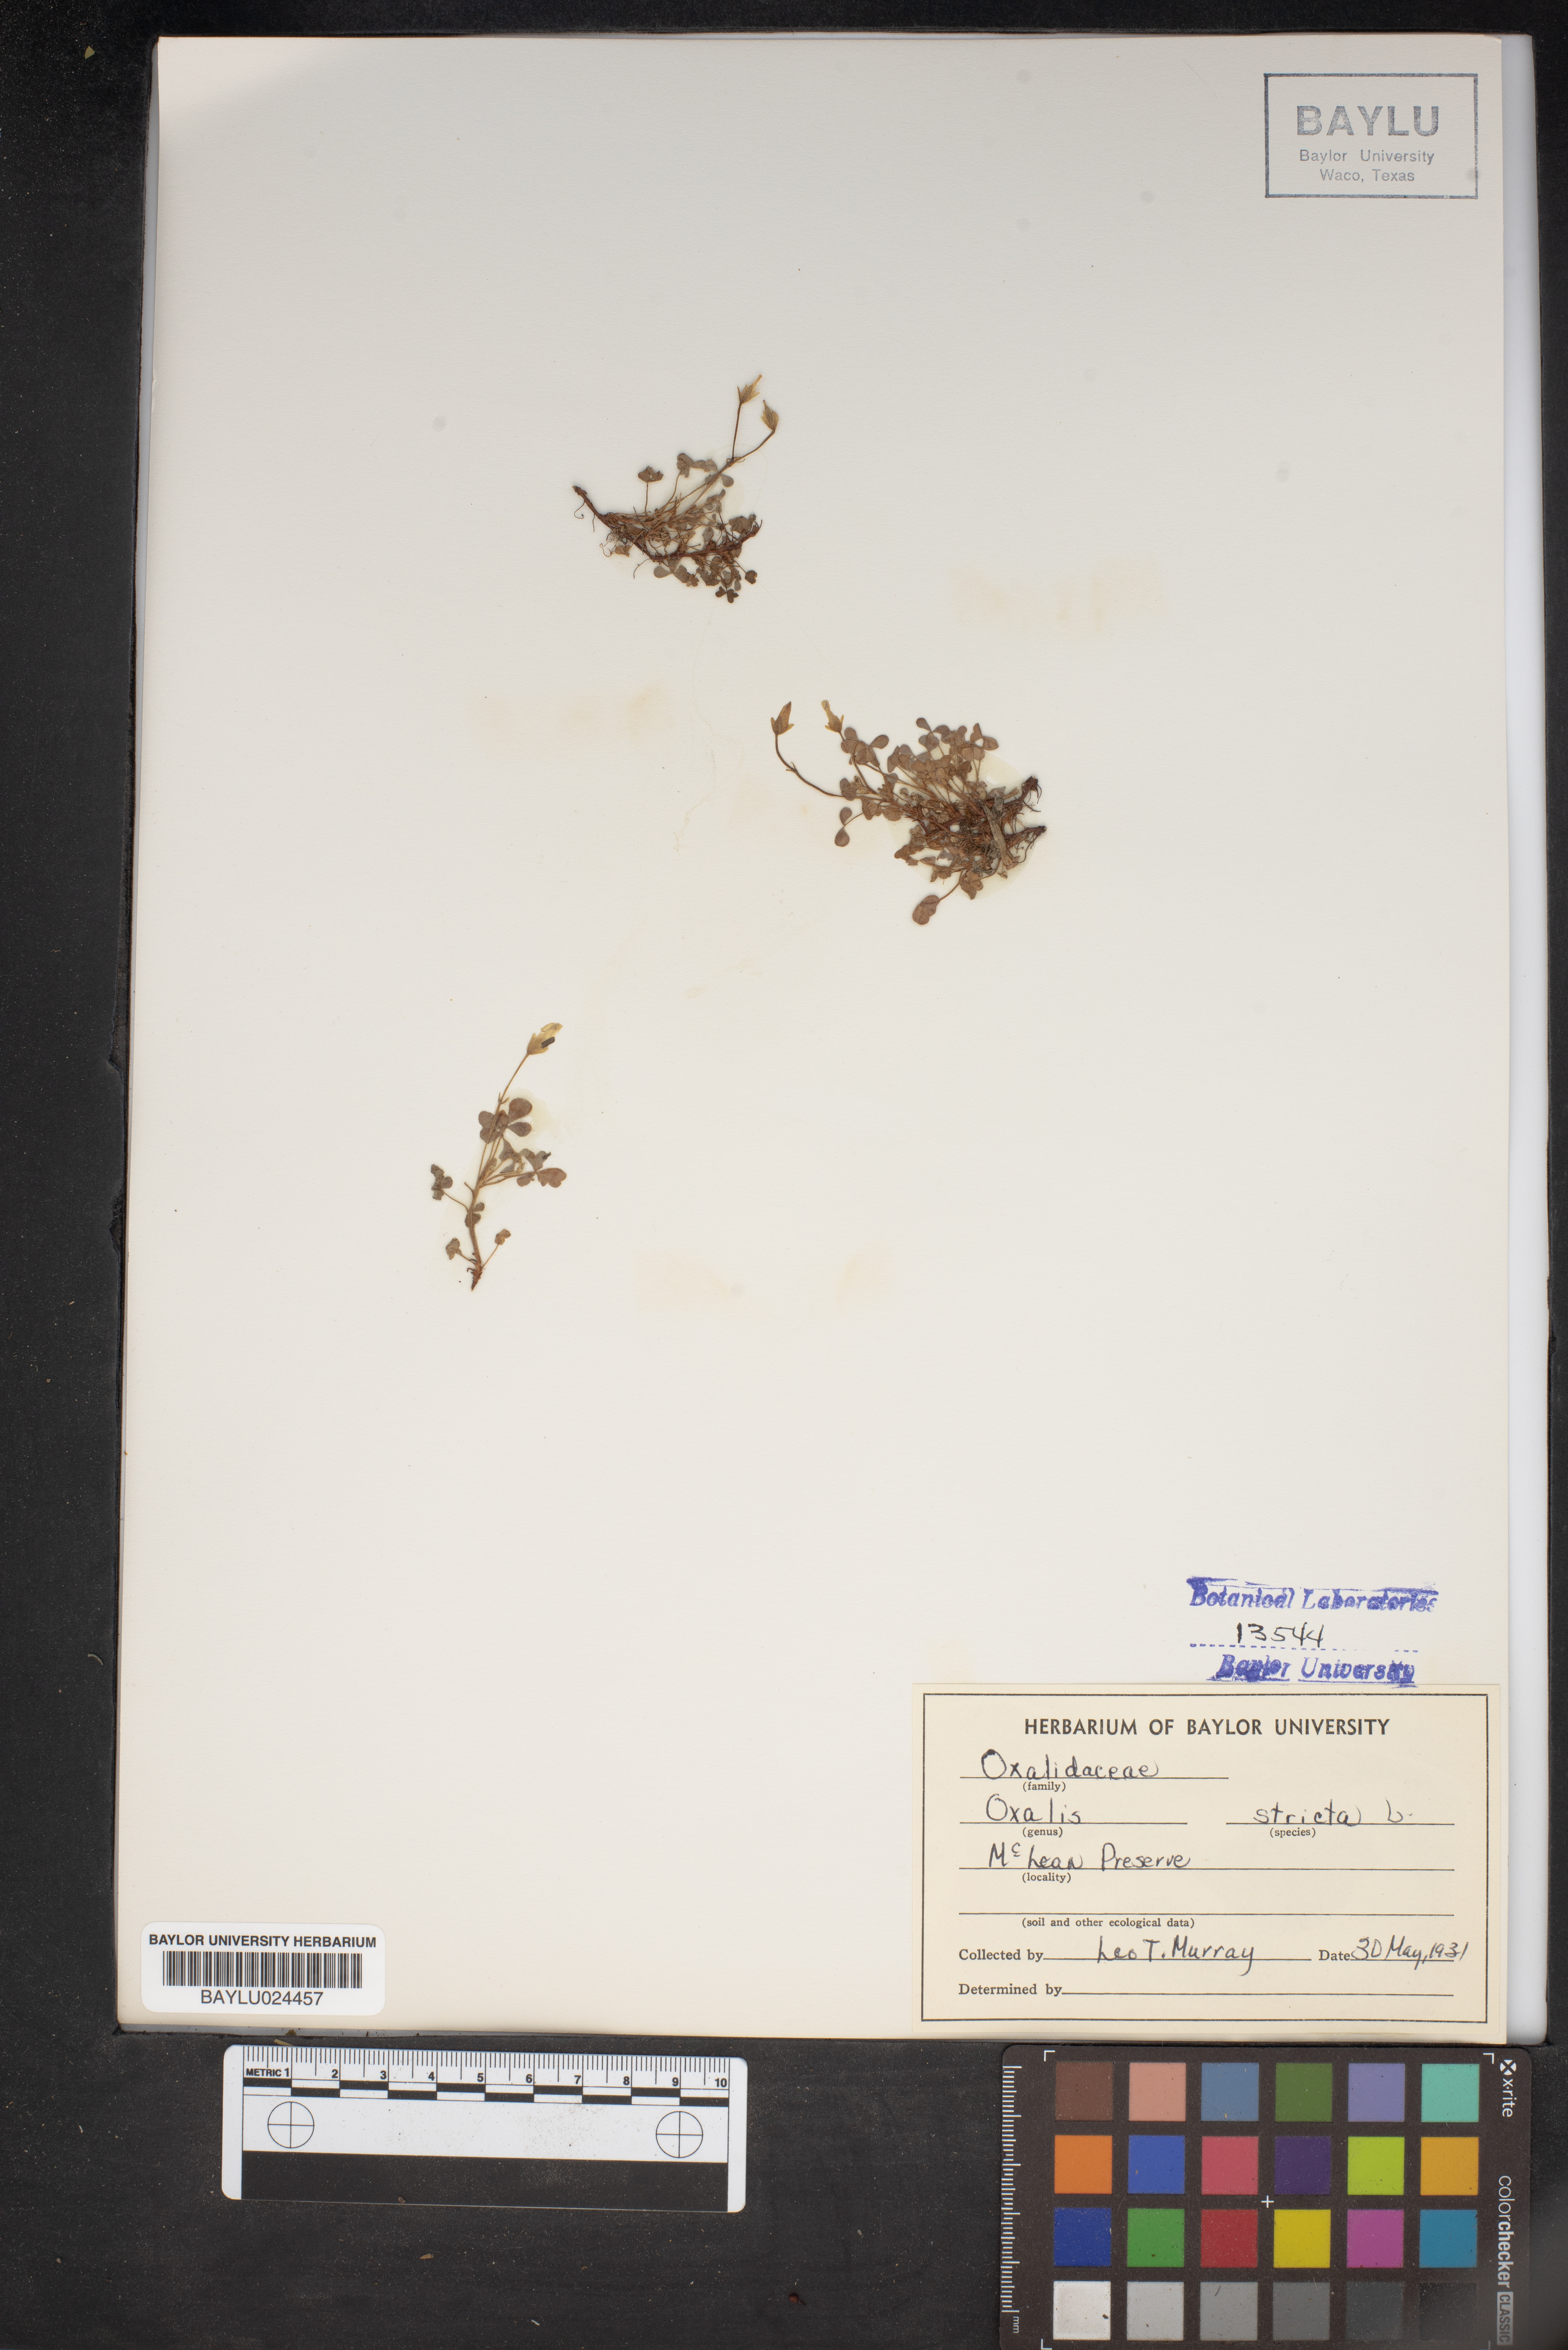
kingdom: Plantae
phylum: Tracheophyta
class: Magnoliopsida
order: Oxalidales
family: Oxalidaceae
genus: Oxalis
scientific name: Oxalis stricta
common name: Upright yellow-sorrel
